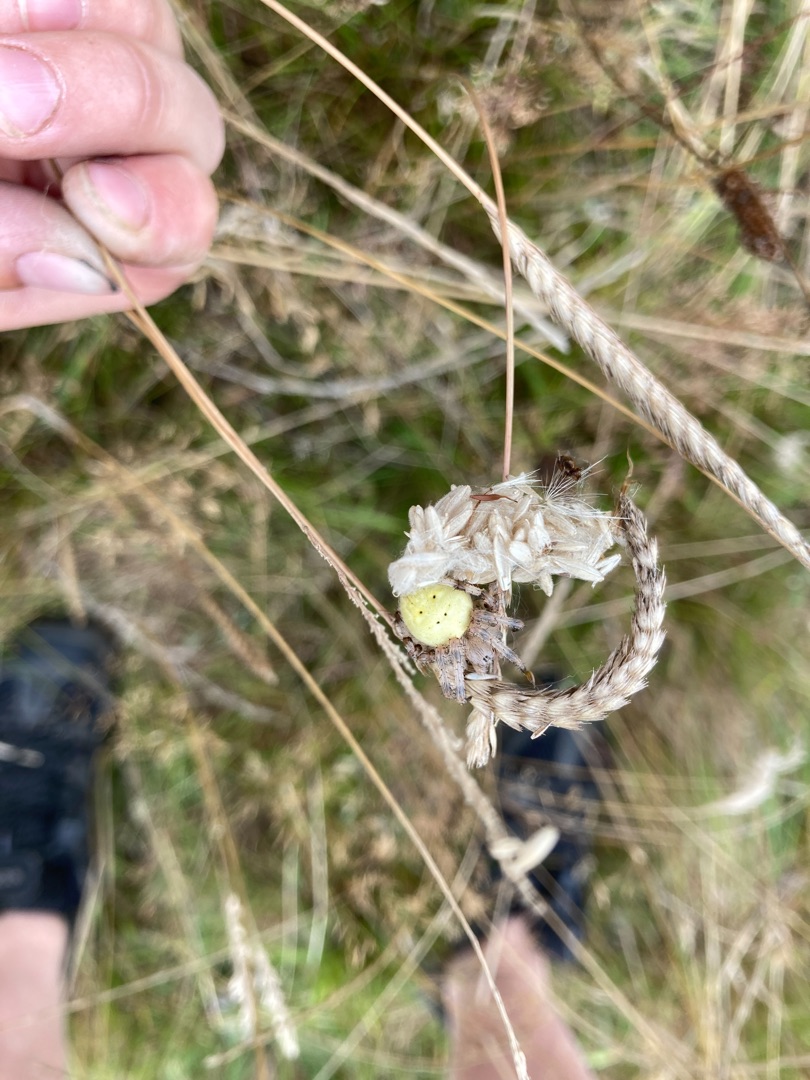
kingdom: Animalia
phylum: Arthropoda
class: Arachnida
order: Araneae
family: Araneidae
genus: Araneus
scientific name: Araneus quadratus
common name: Kvadratedderkop
